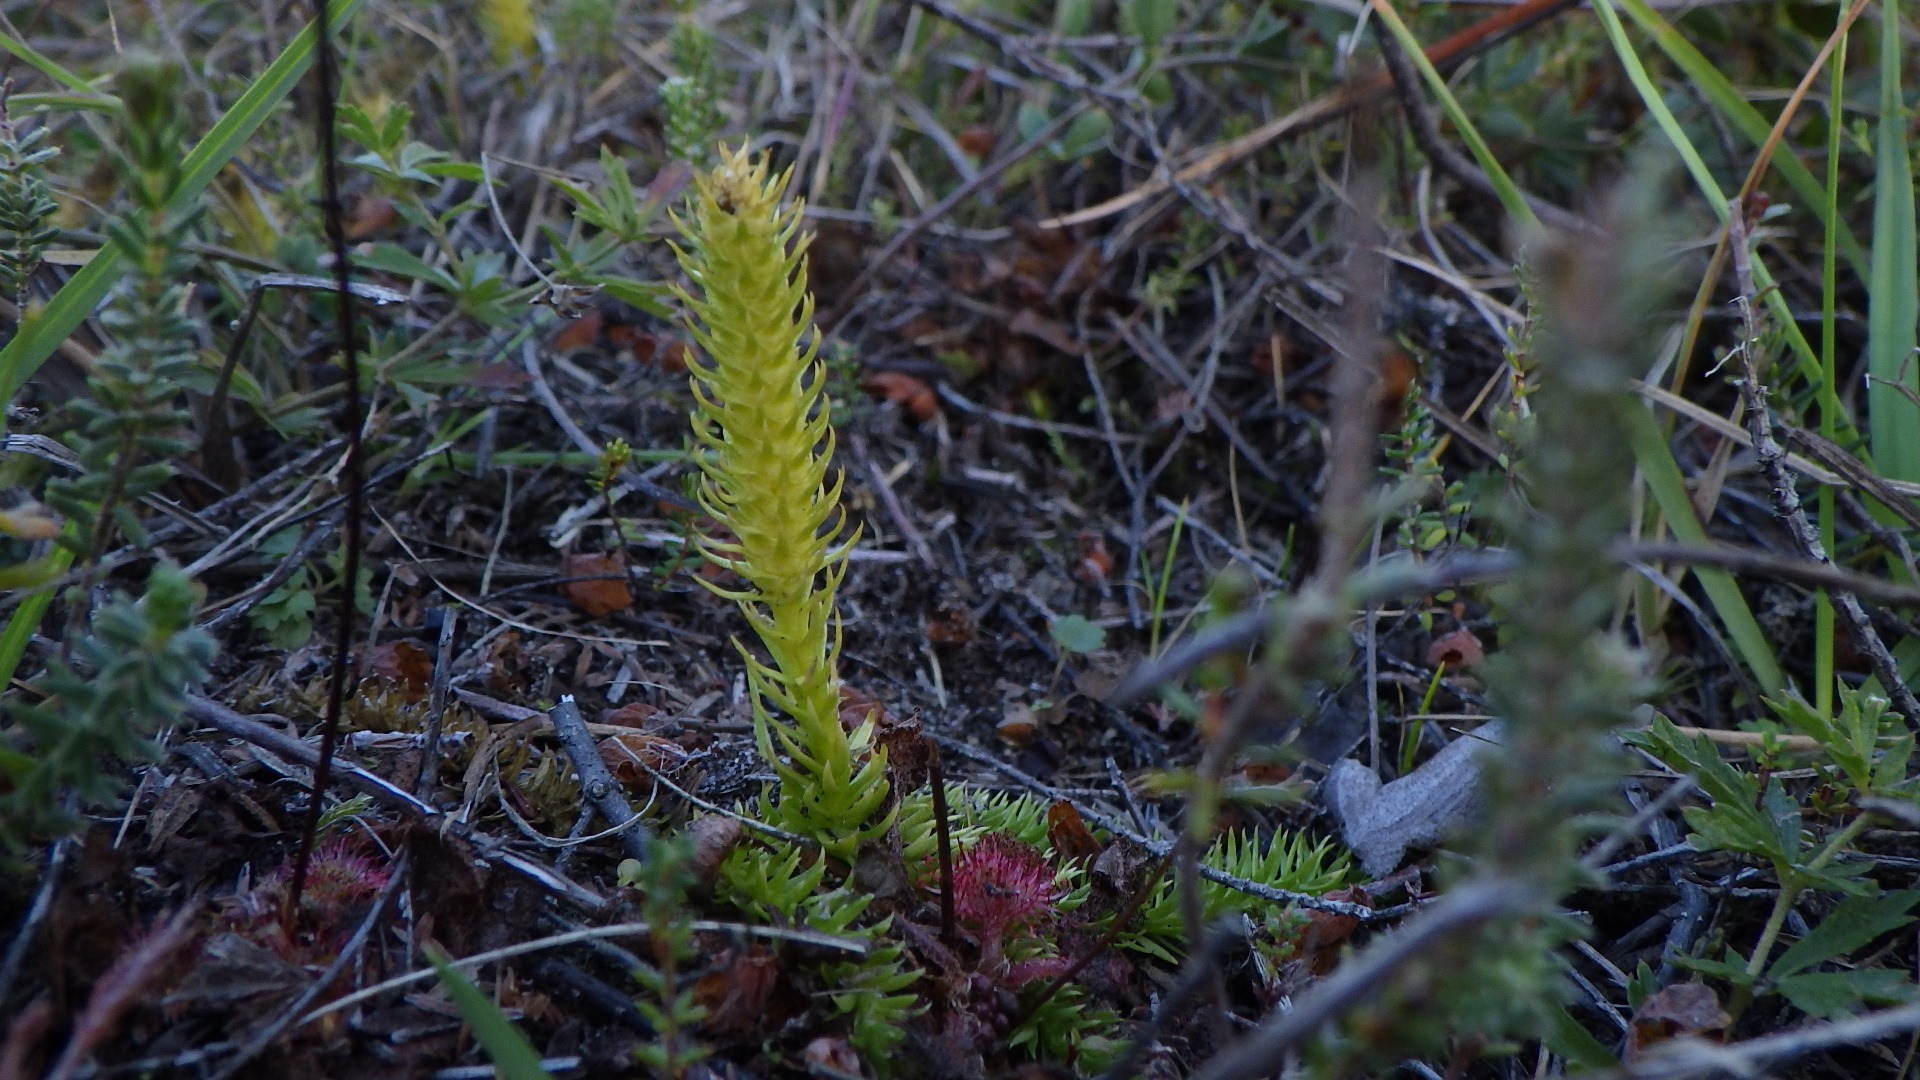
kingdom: Plantae
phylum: Tracheophyta
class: Lycopodiopsida
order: Lycopodiales
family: Lycopodiaceae
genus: Lycopodiella
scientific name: Lycopodiella inundata
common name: Liden ulvefod
